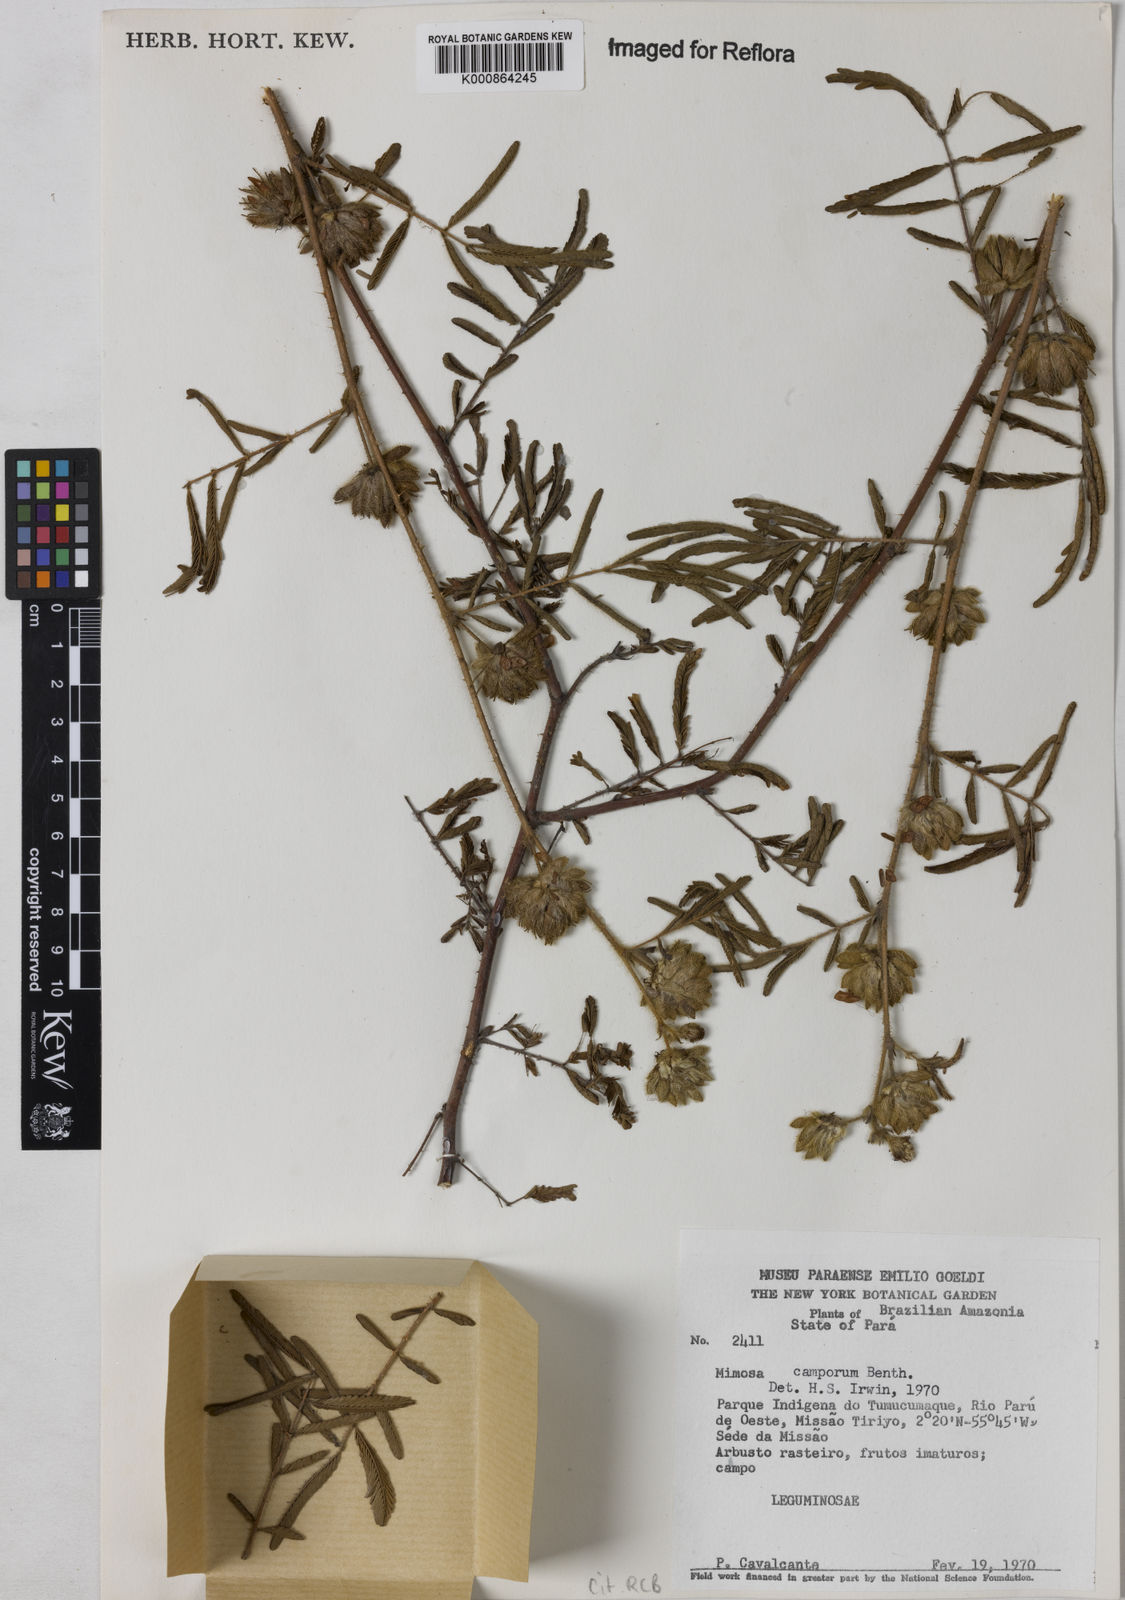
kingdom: Plantae
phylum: Tracheophyta
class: Magnoliopsida
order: Fabales
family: Fabaceae
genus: Mimosa
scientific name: Mimosa camporum
